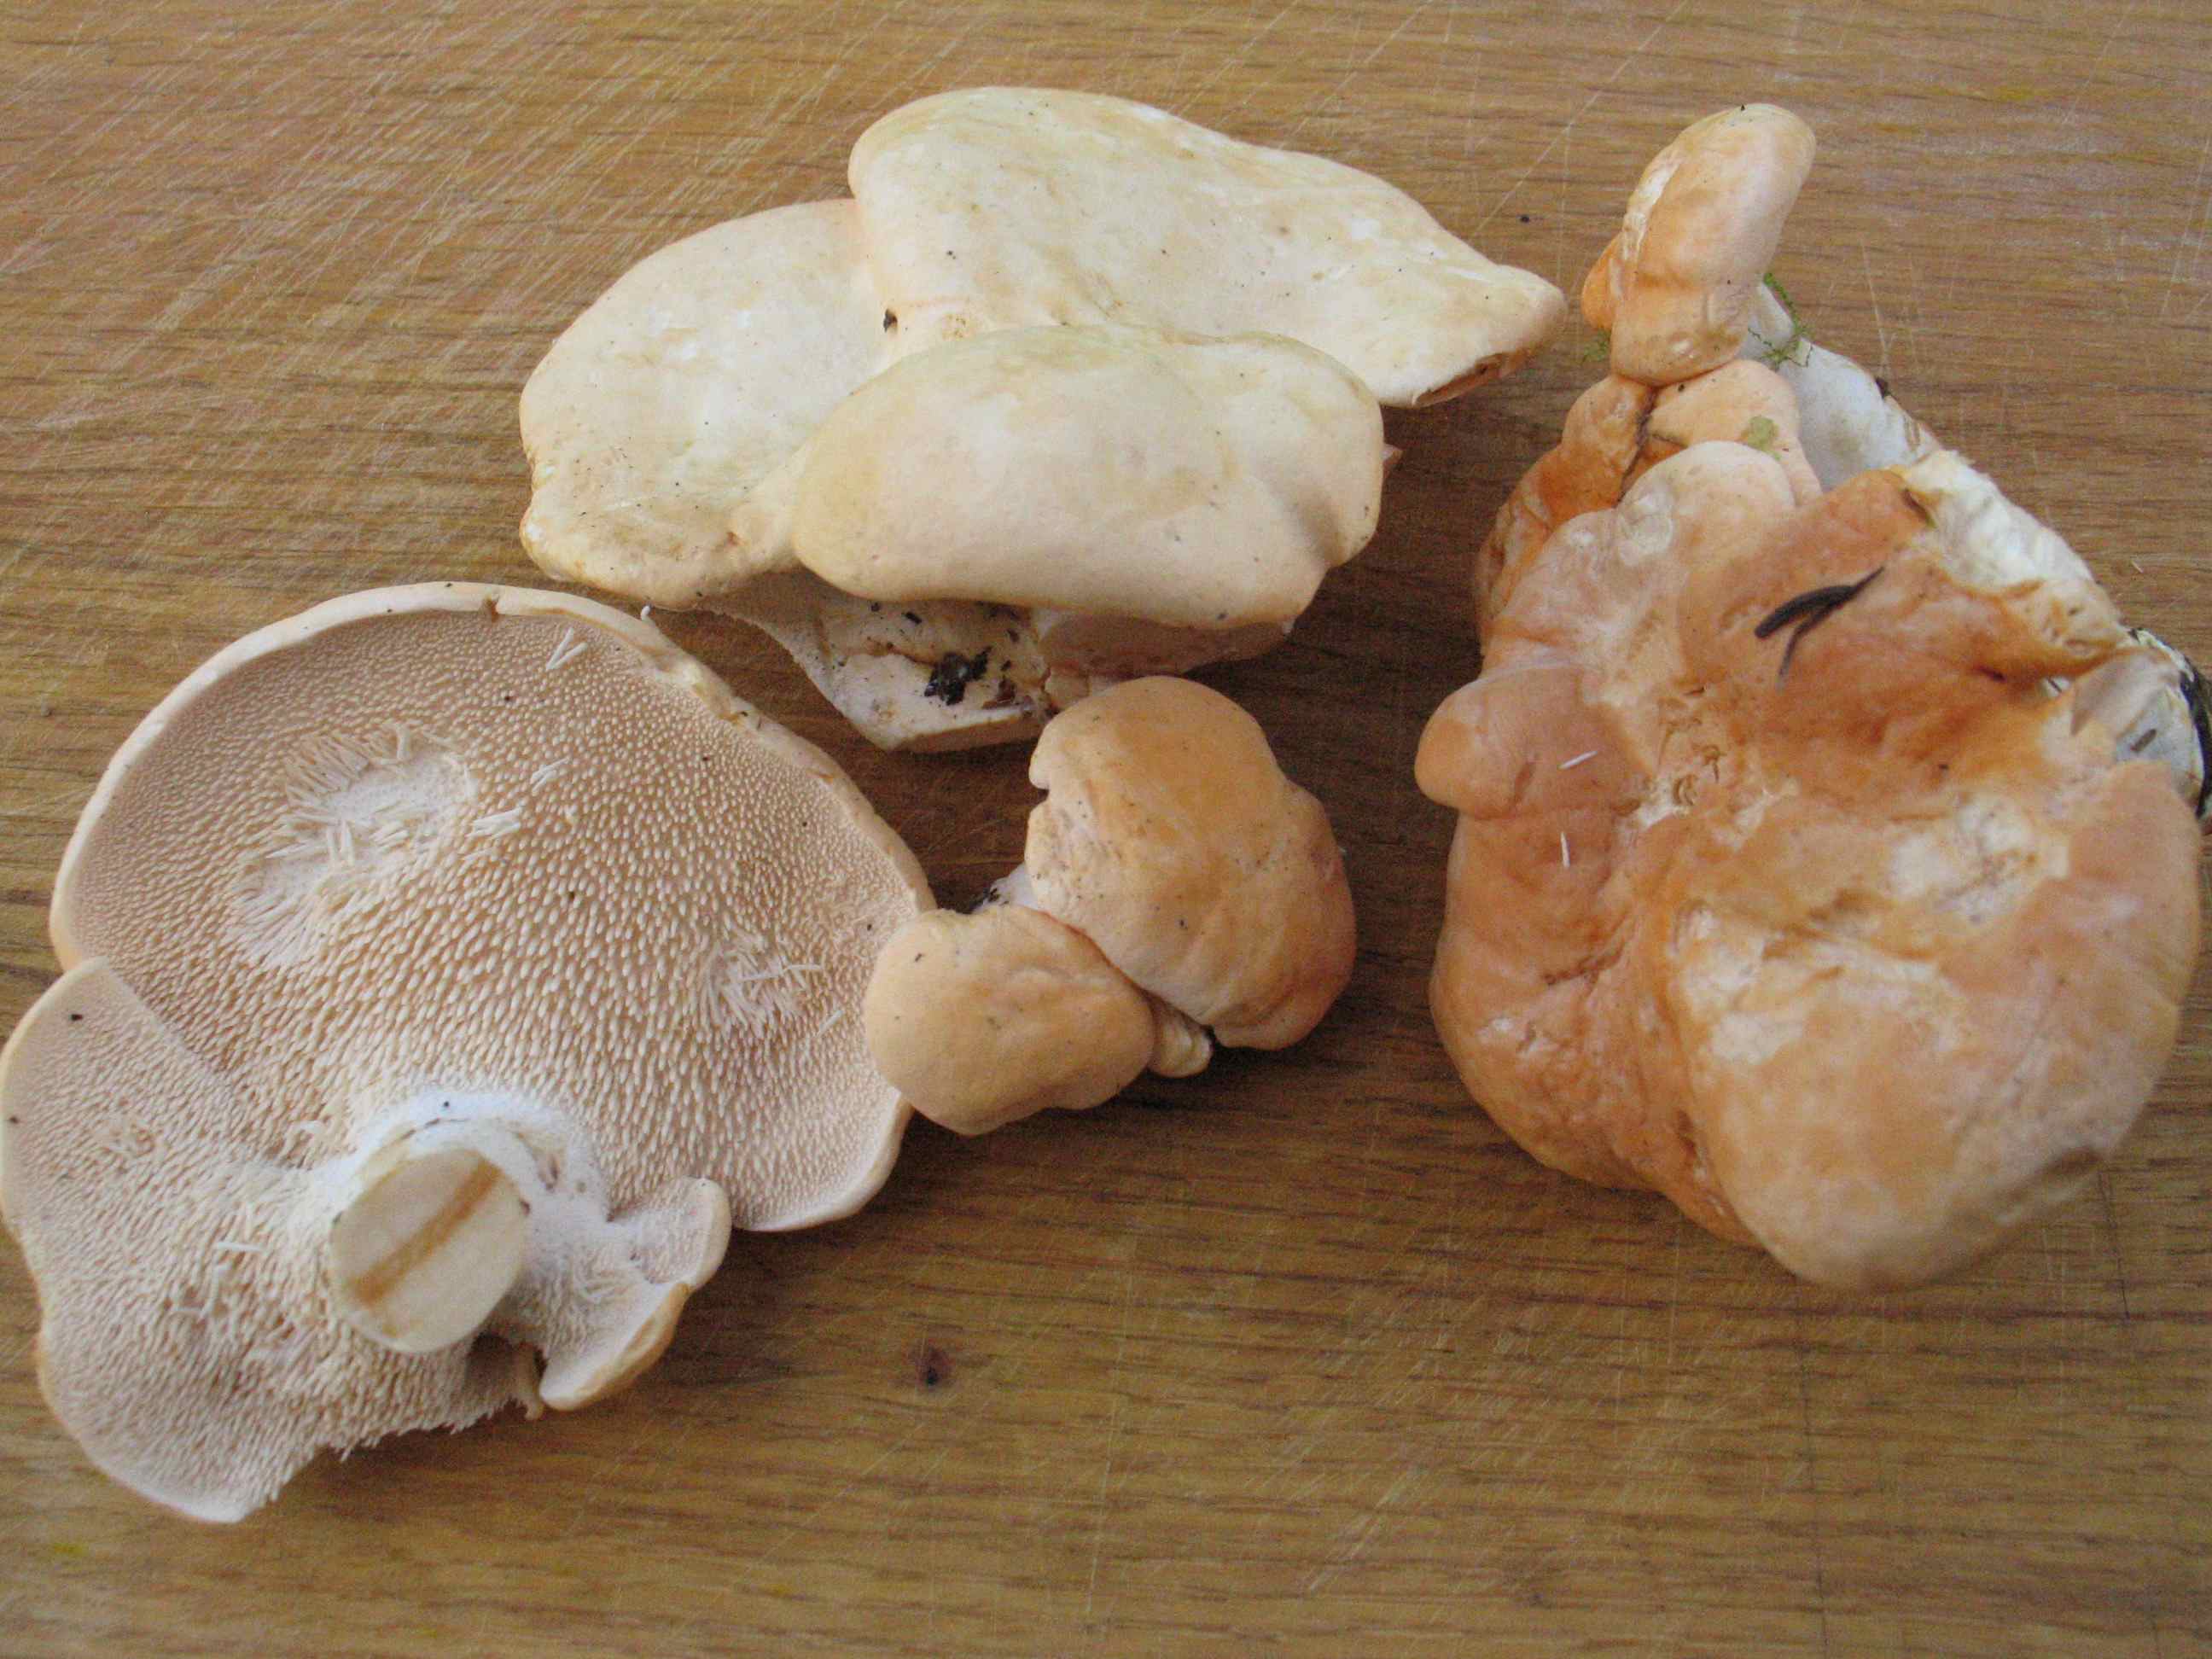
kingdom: Fungi
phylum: Basidiomycota
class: Agaricomycetes
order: Cantharellales
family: Hydnaceae
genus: Hydnum
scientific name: Hydnum repandum
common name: almindelig pigsvamp
